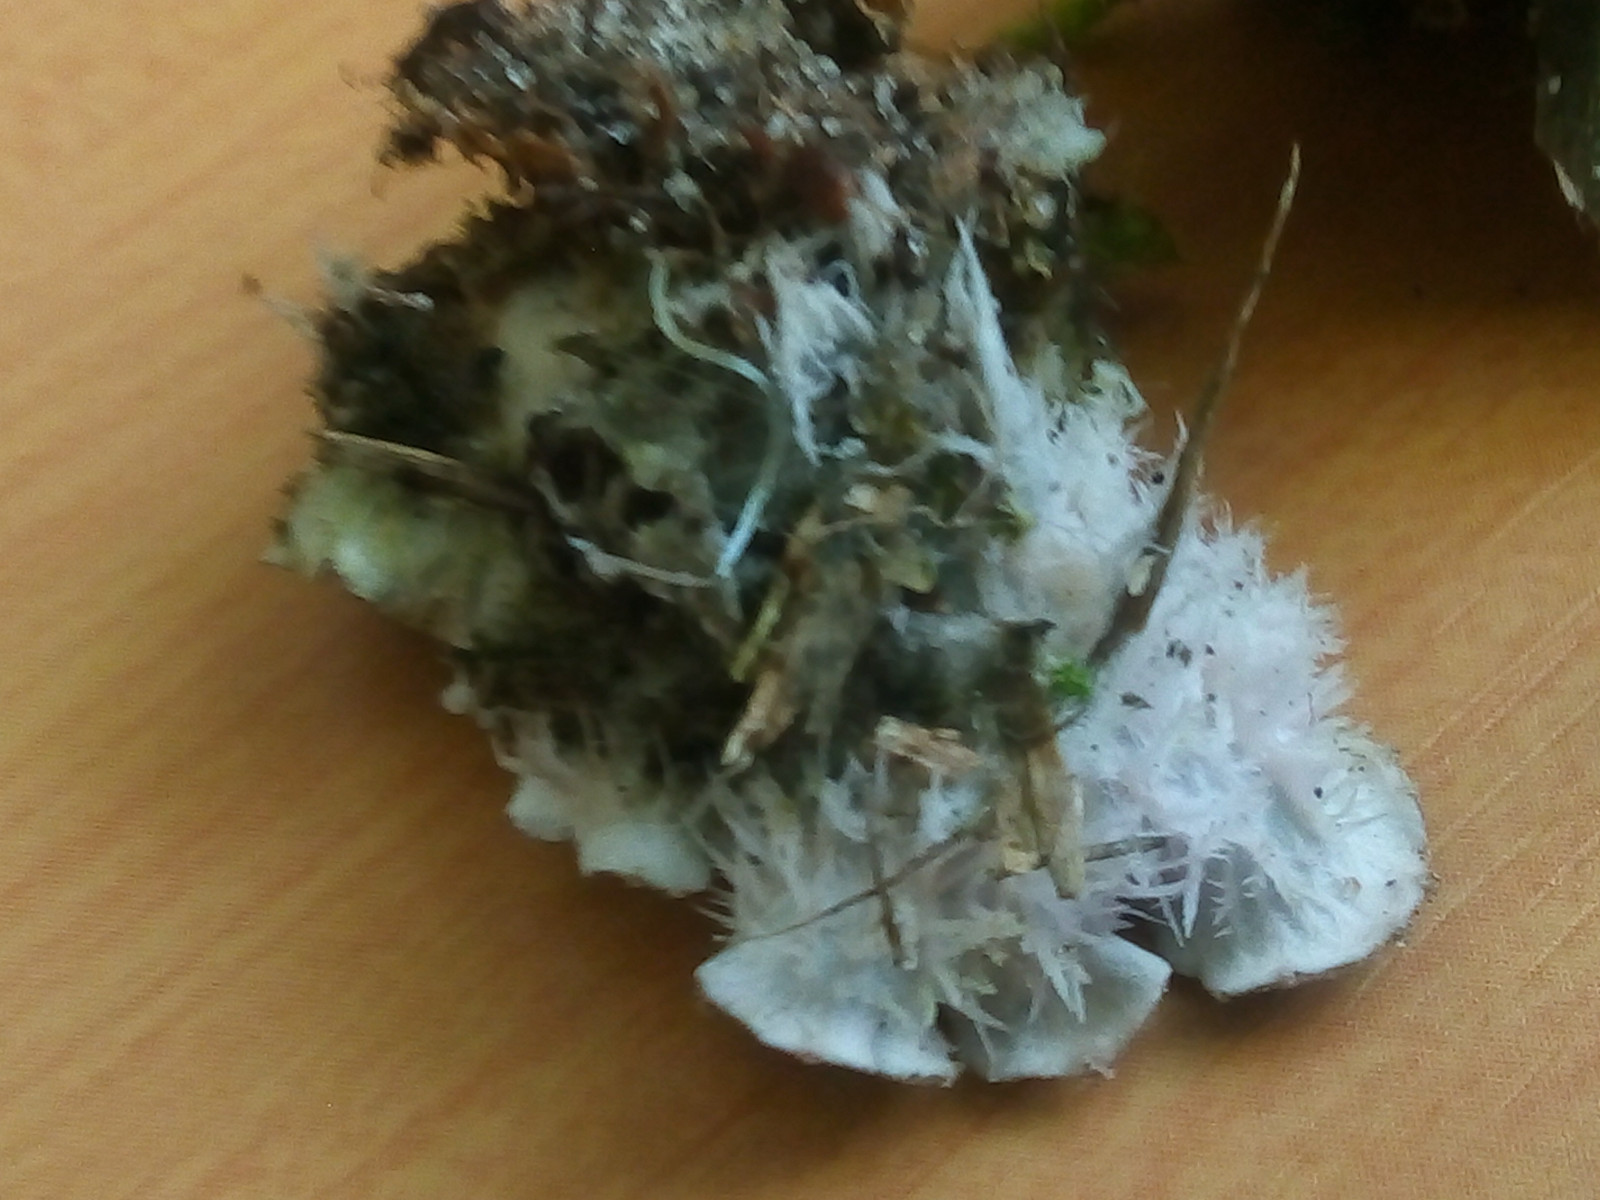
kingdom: Fungi
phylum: Ascomycota
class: Lecanoromycetes
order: Peltigerales
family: Peltigeraceae
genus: Peltigera
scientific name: Peltigera
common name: skjoldlav
